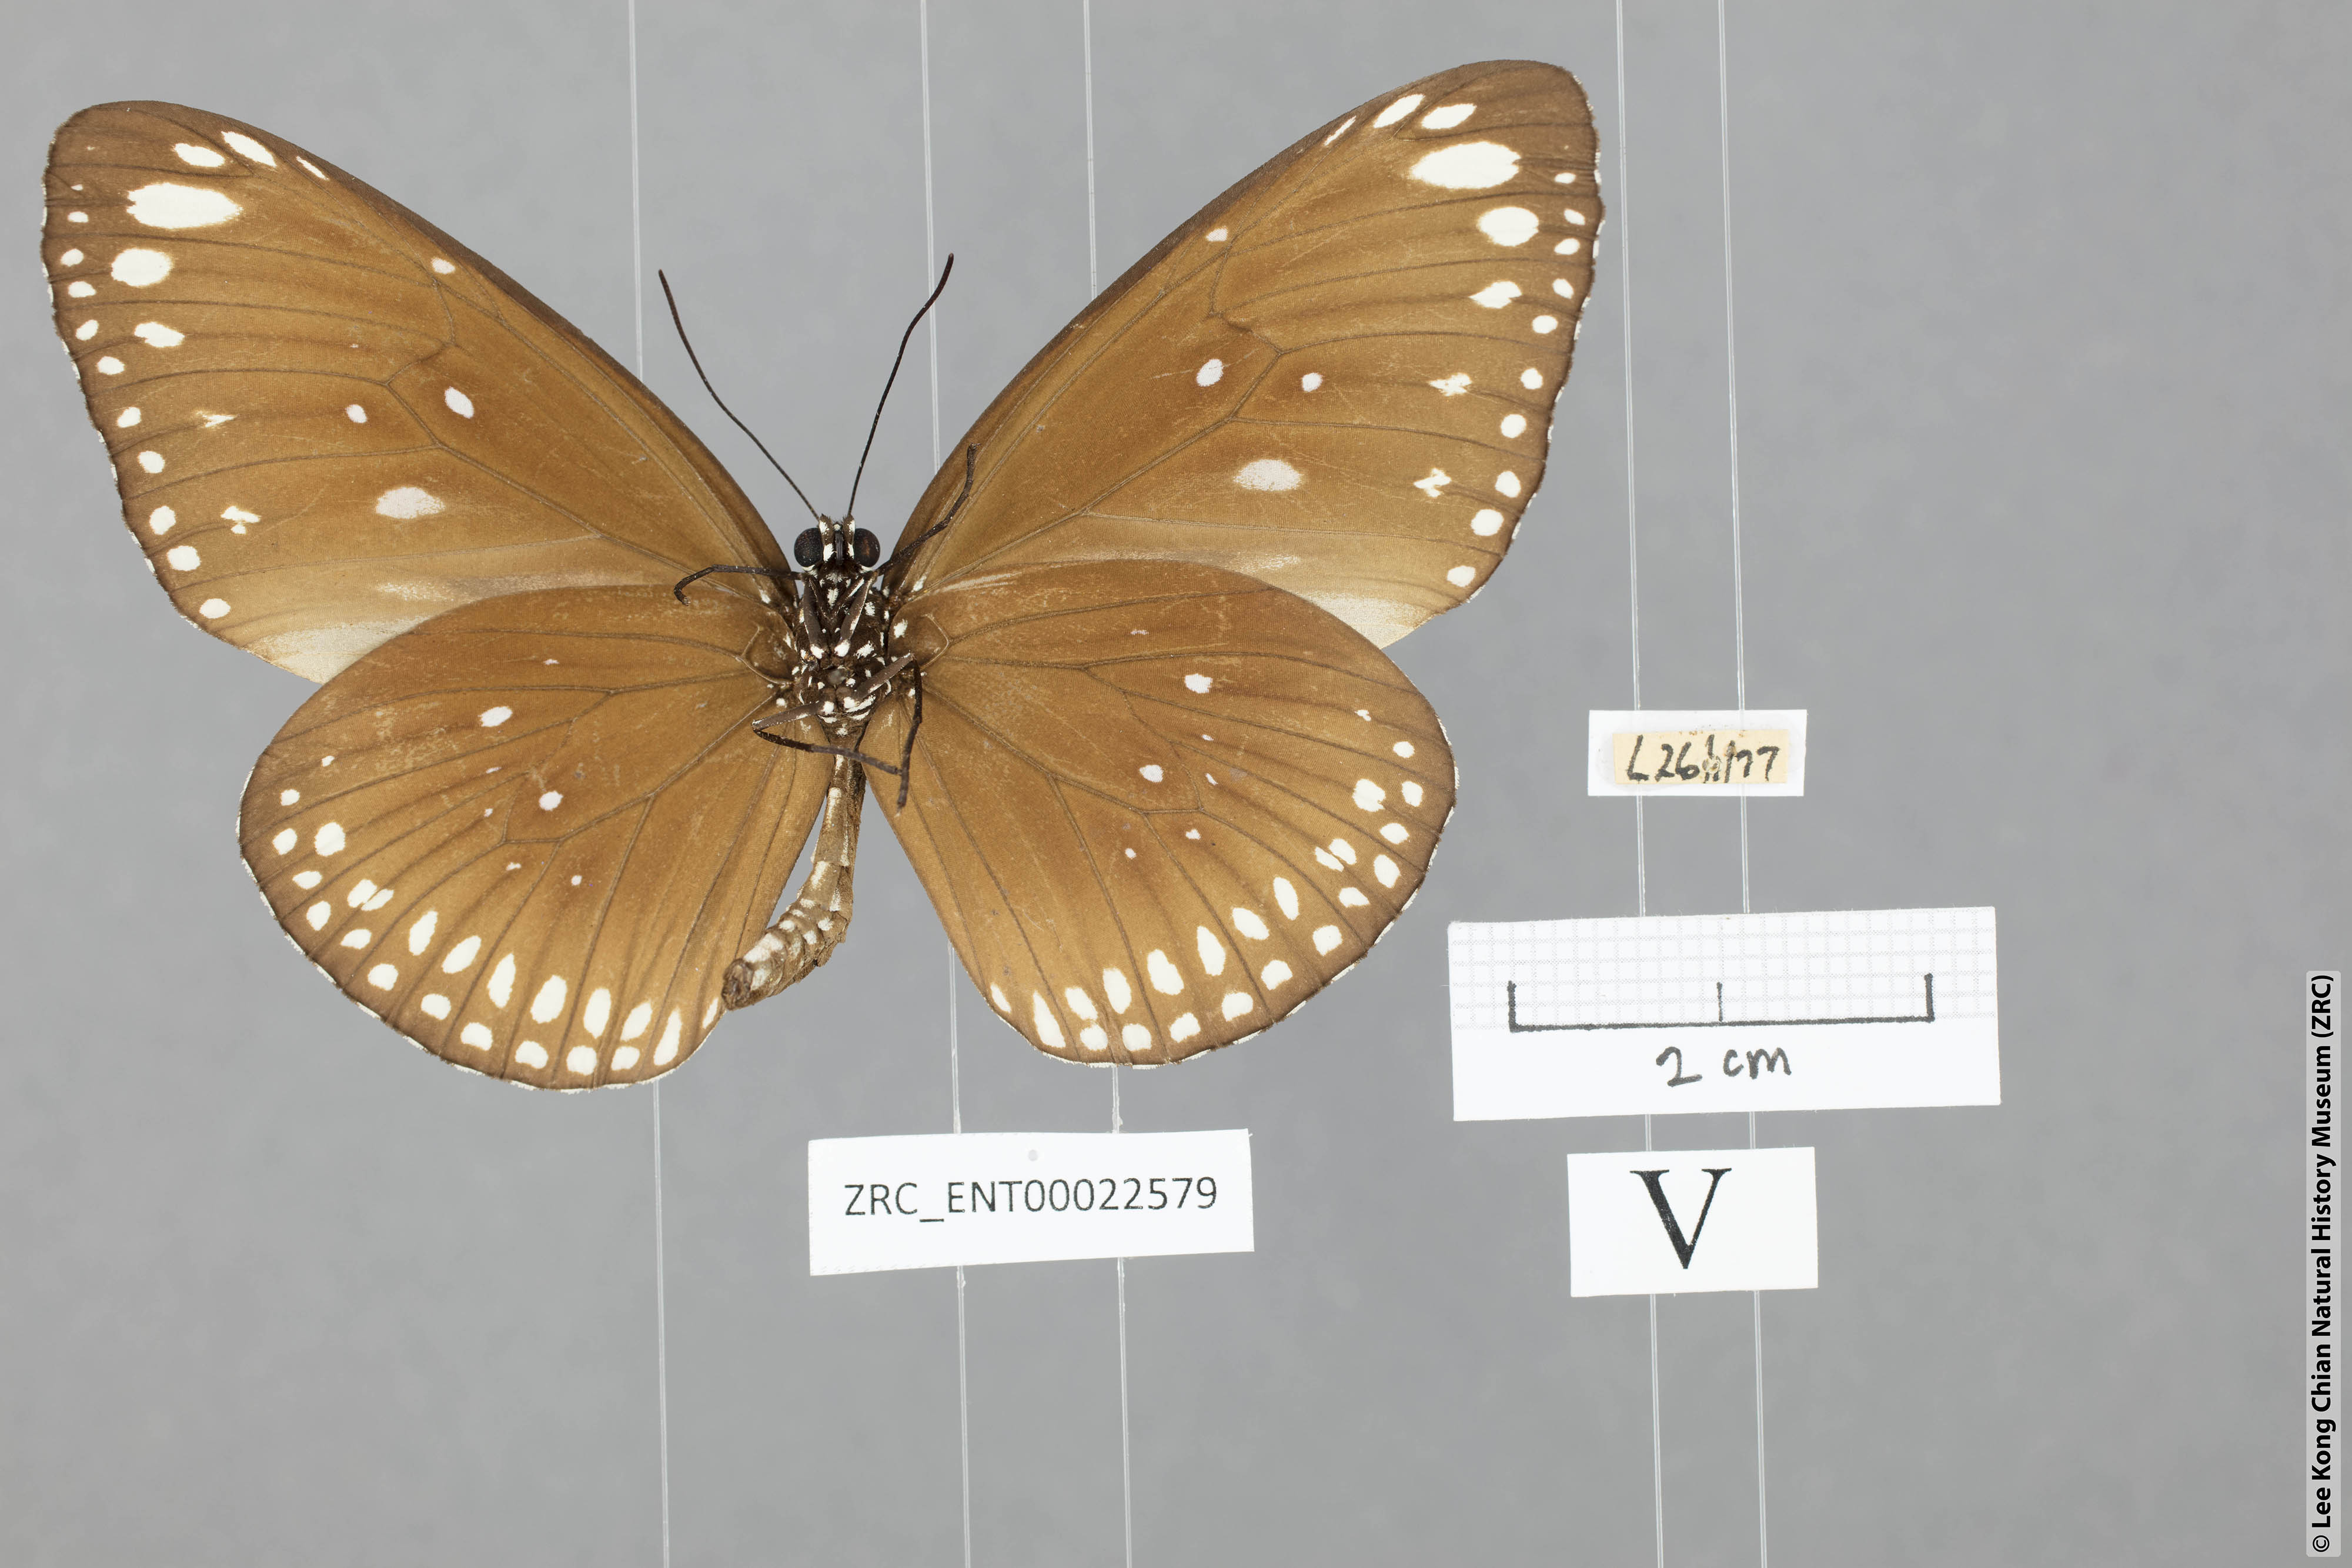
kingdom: Animalia
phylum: Arthropoda
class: Insecta
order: Lepidoptera
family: Nymphalidae
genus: Euploea
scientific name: Euploea core
